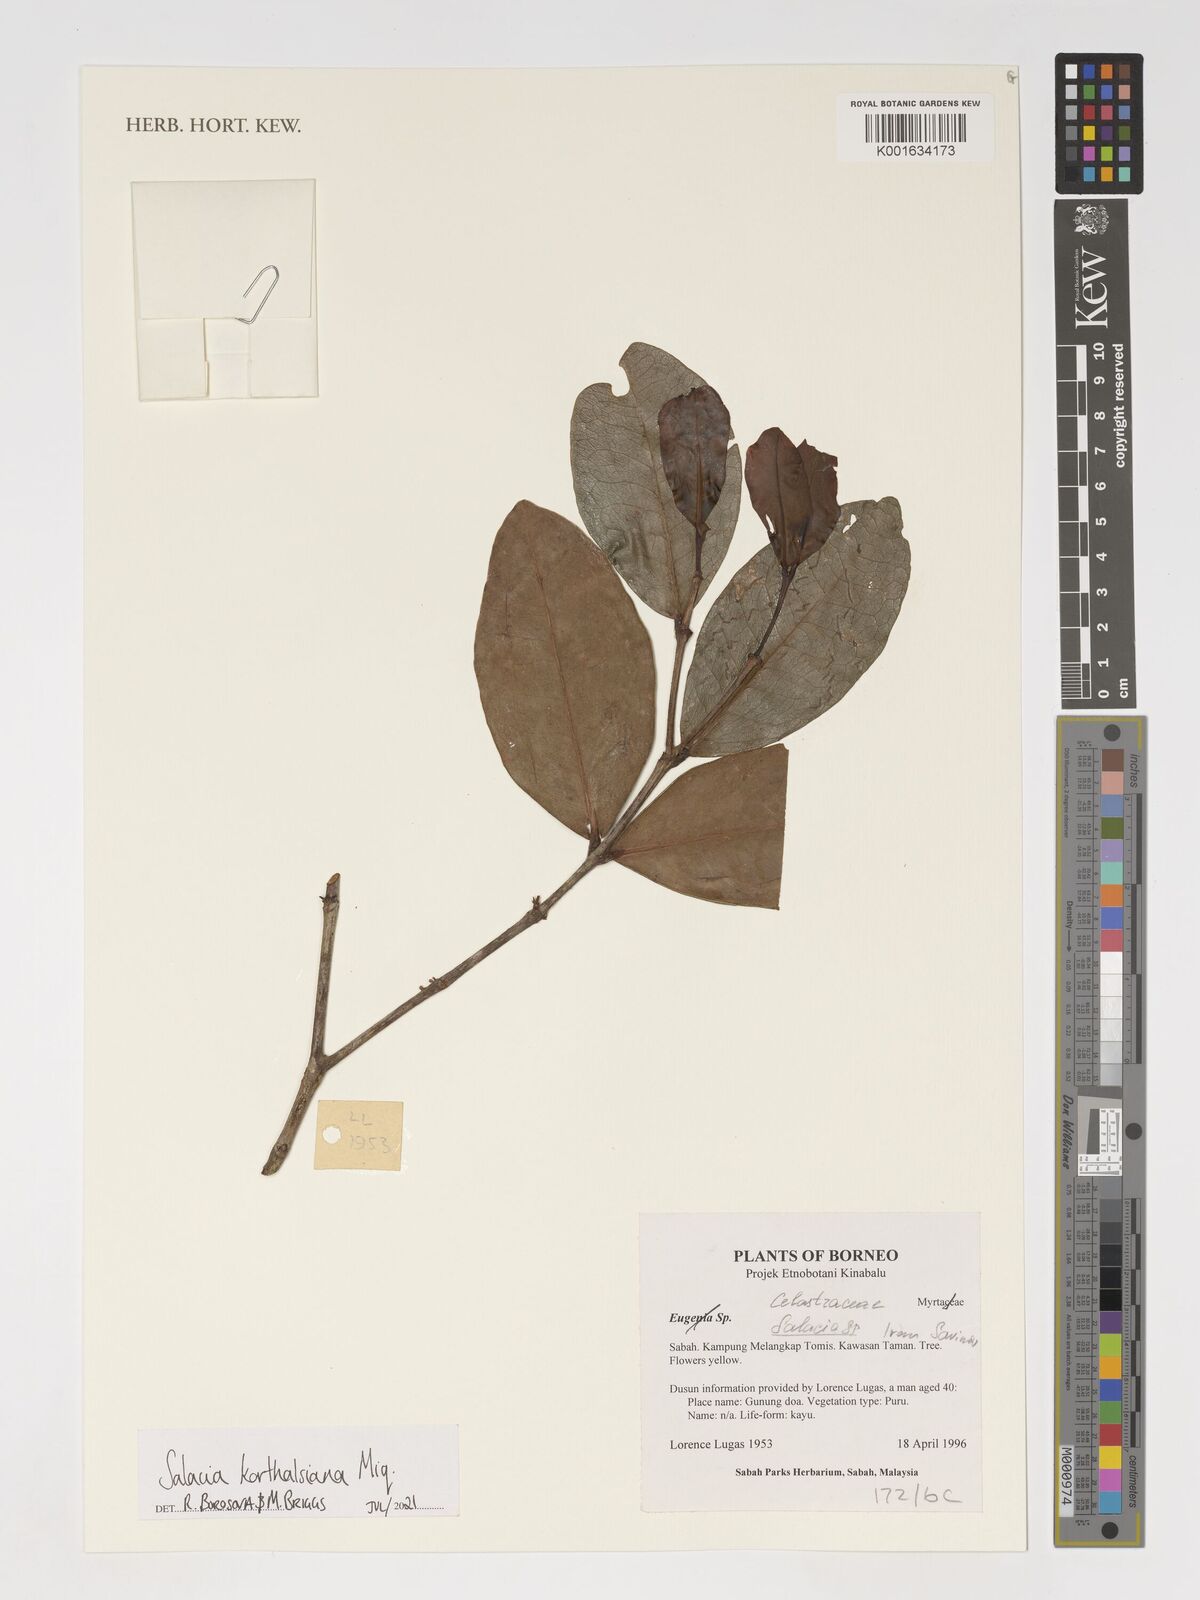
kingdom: Plantae
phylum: Tracheophyta
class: Magnoliopsida
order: Celastrales
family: Celastraceae
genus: Salacia
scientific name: Salacia korthalsiana
